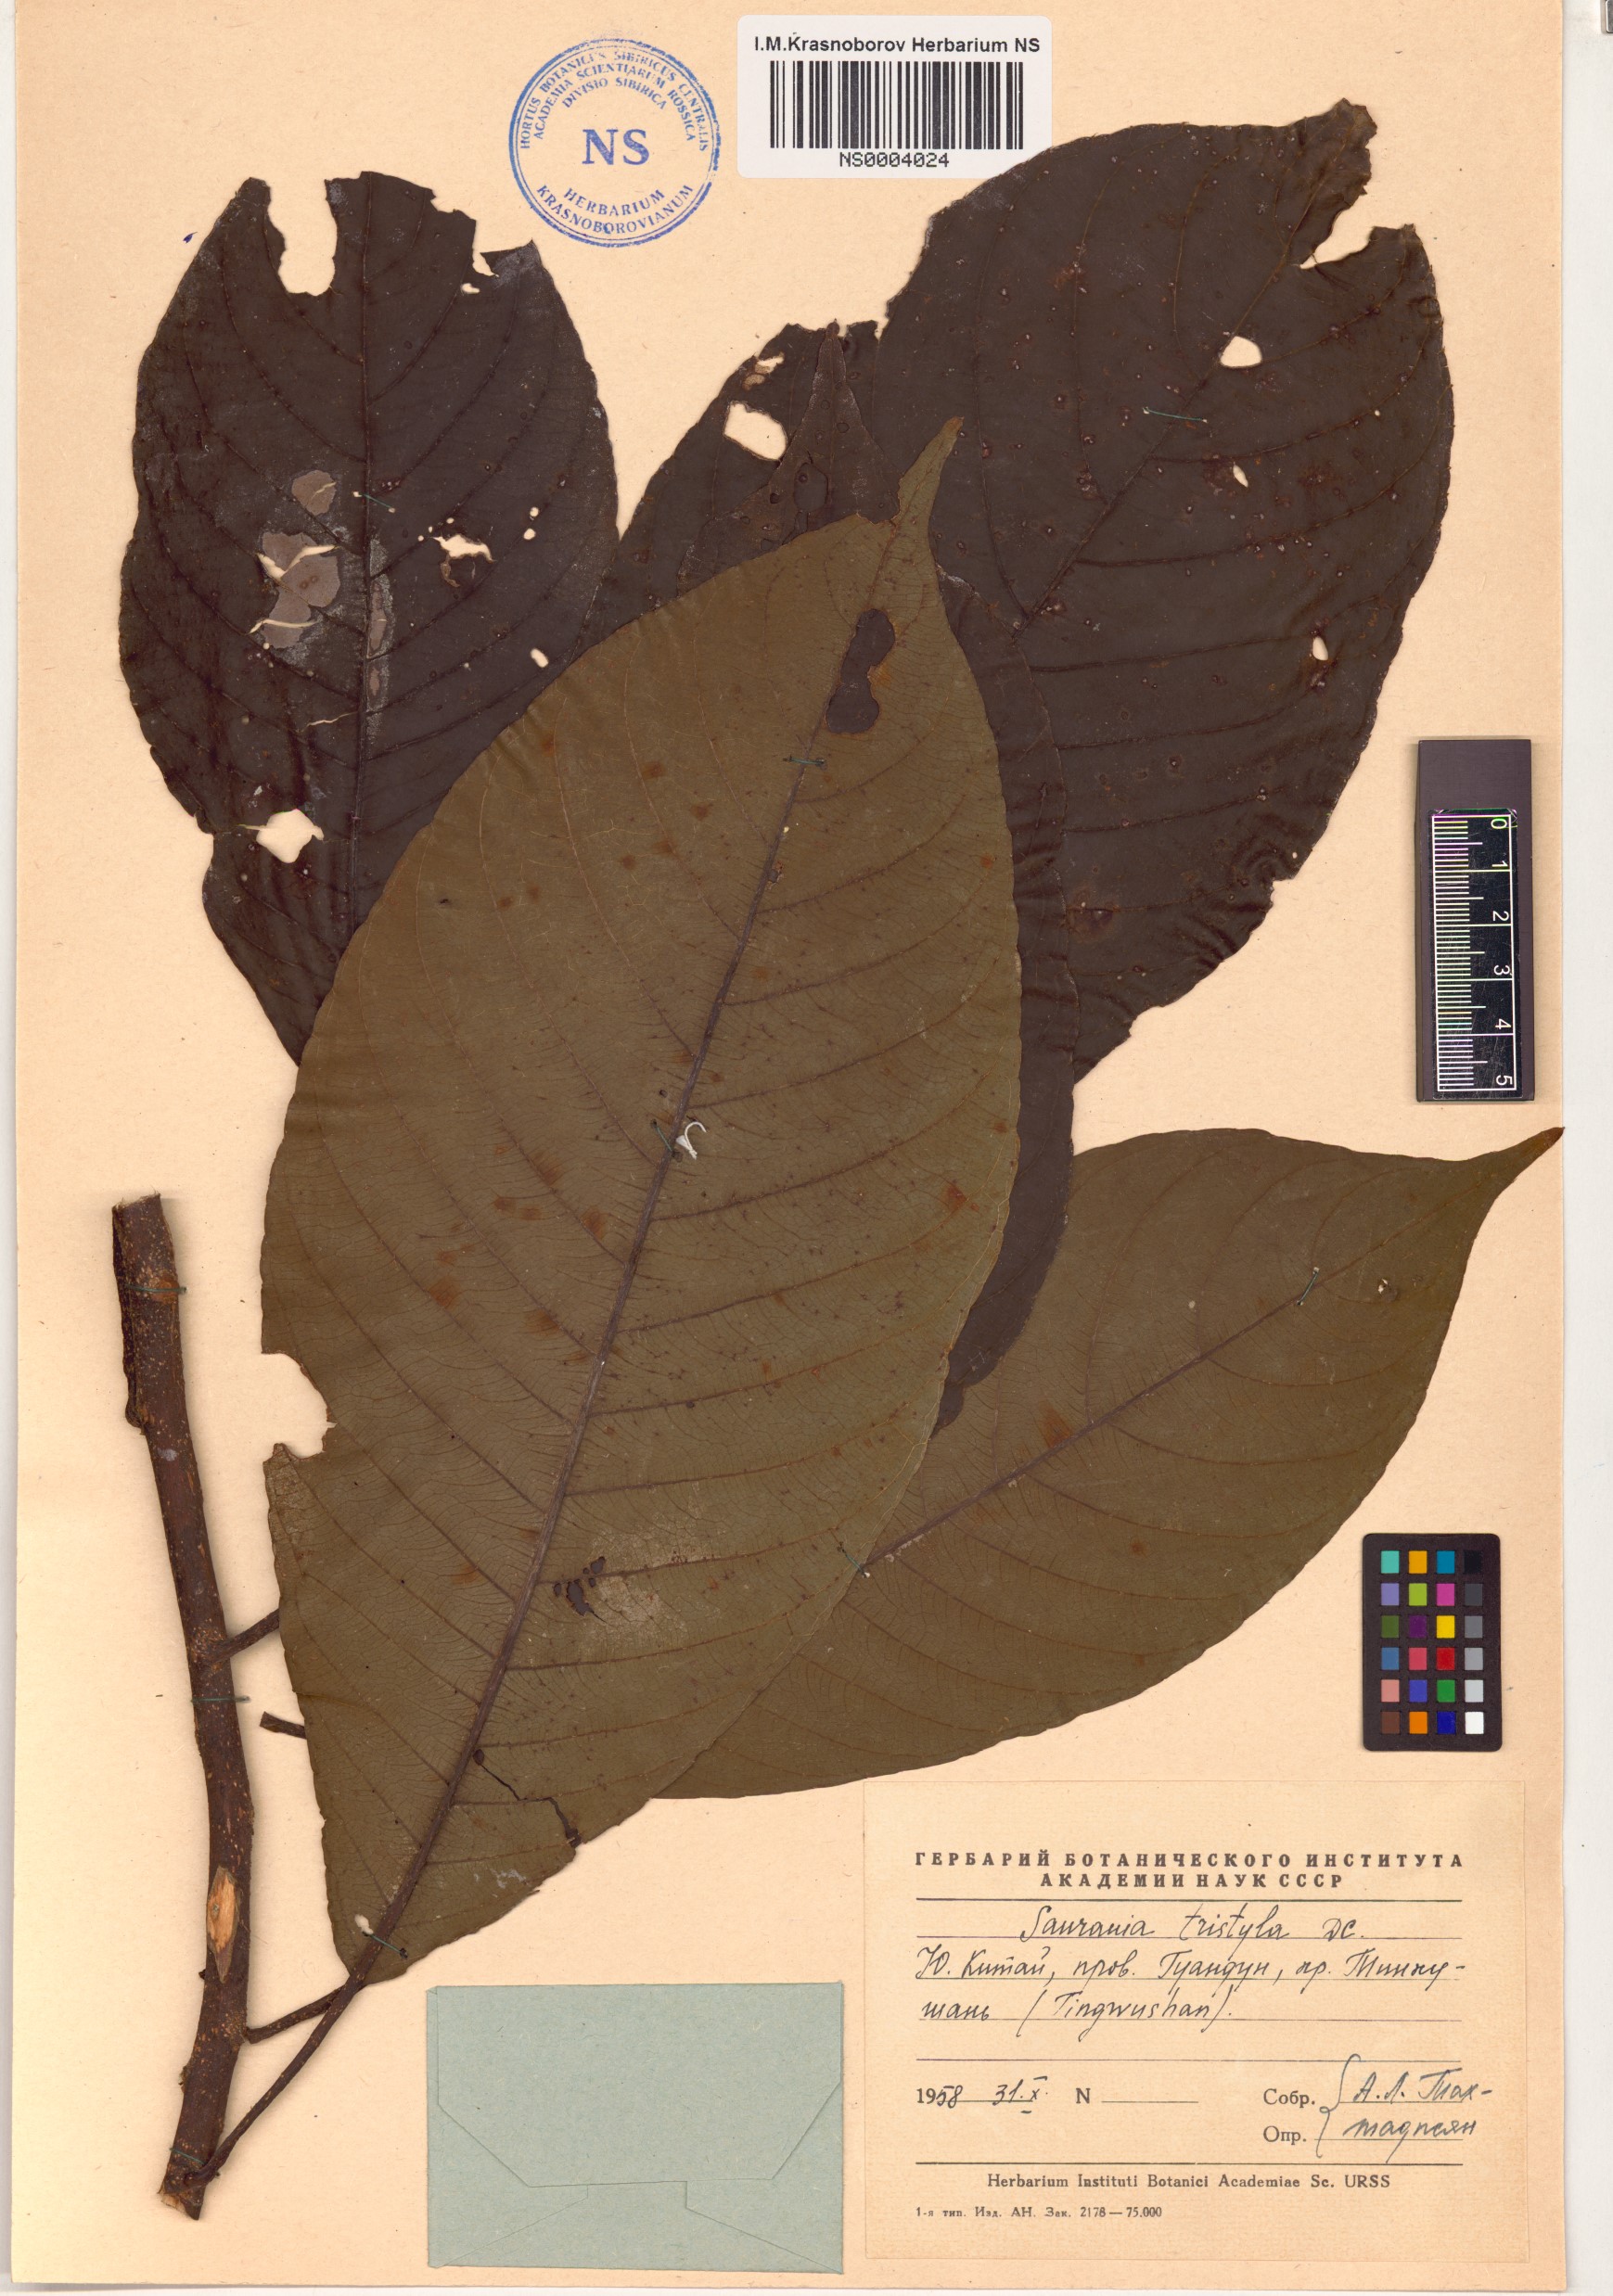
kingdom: Plantae
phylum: Tracheophyta
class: Magnoliopsida
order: Ericales
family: Actinidiaceae
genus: Saurauia
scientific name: Saurauia tristyla
